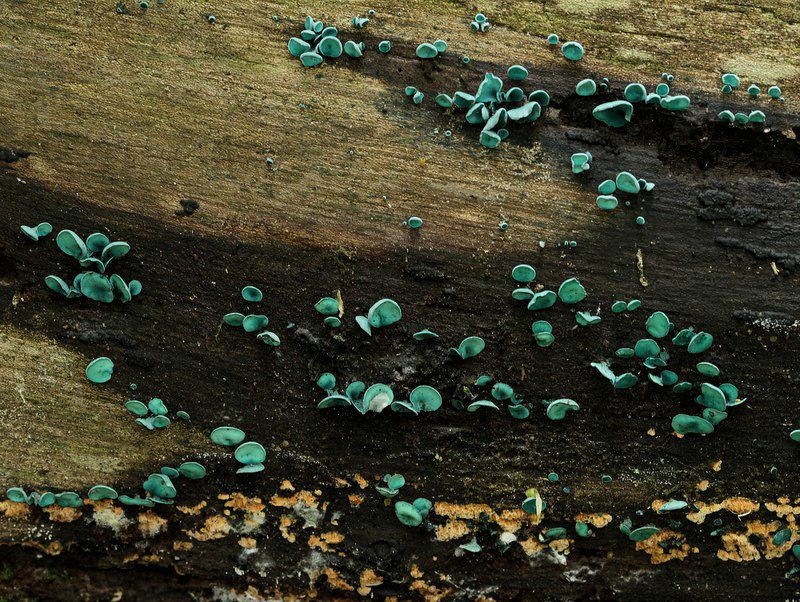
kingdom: Fungi
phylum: Ascomycota
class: Leotiomycetes
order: Helotiales
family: Chlorociboriaceae
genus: Chlorociboria
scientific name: Chlorociboria aeruginascens
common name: almindelig grønskive
